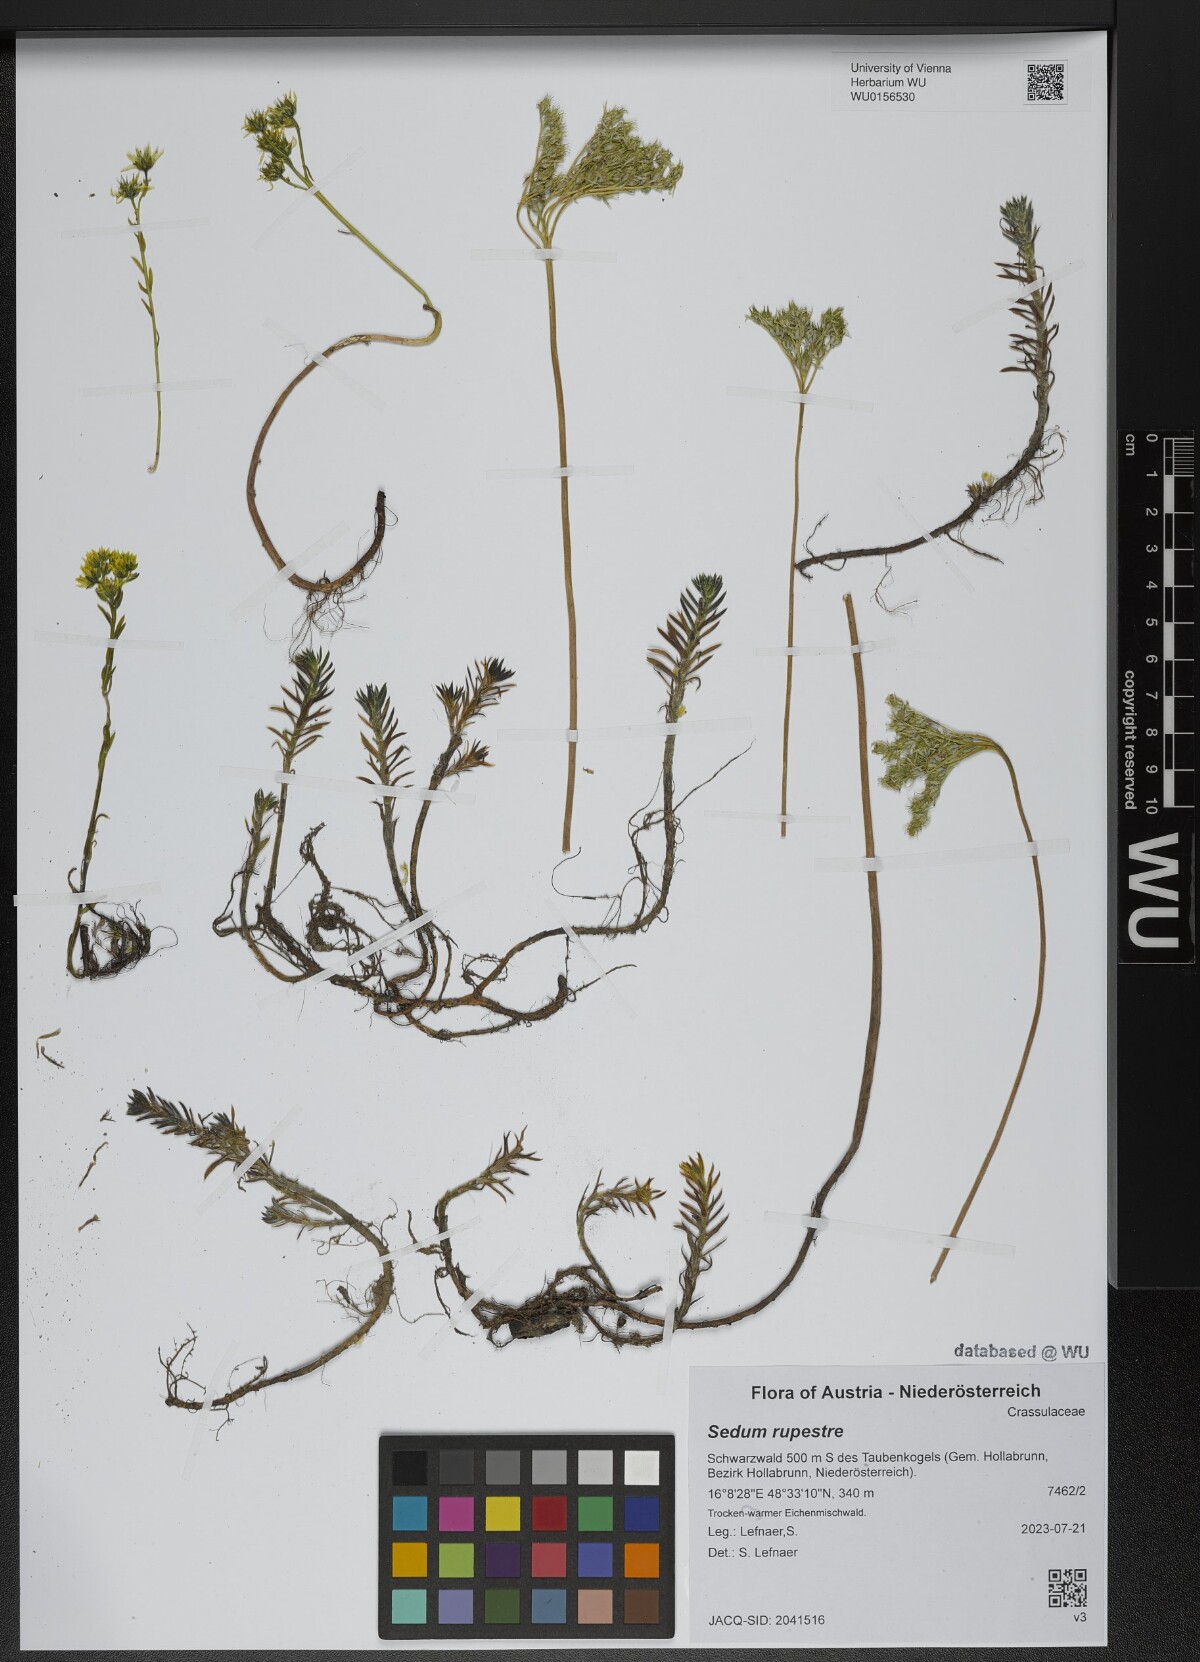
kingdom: Plantae
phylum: Tracheophyta
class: Magnoliopsida
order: Saxifragales
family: Crassulaceae
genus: Petrosedum
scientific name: Petrosedum rupestre
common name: Jenny's stonecrop
